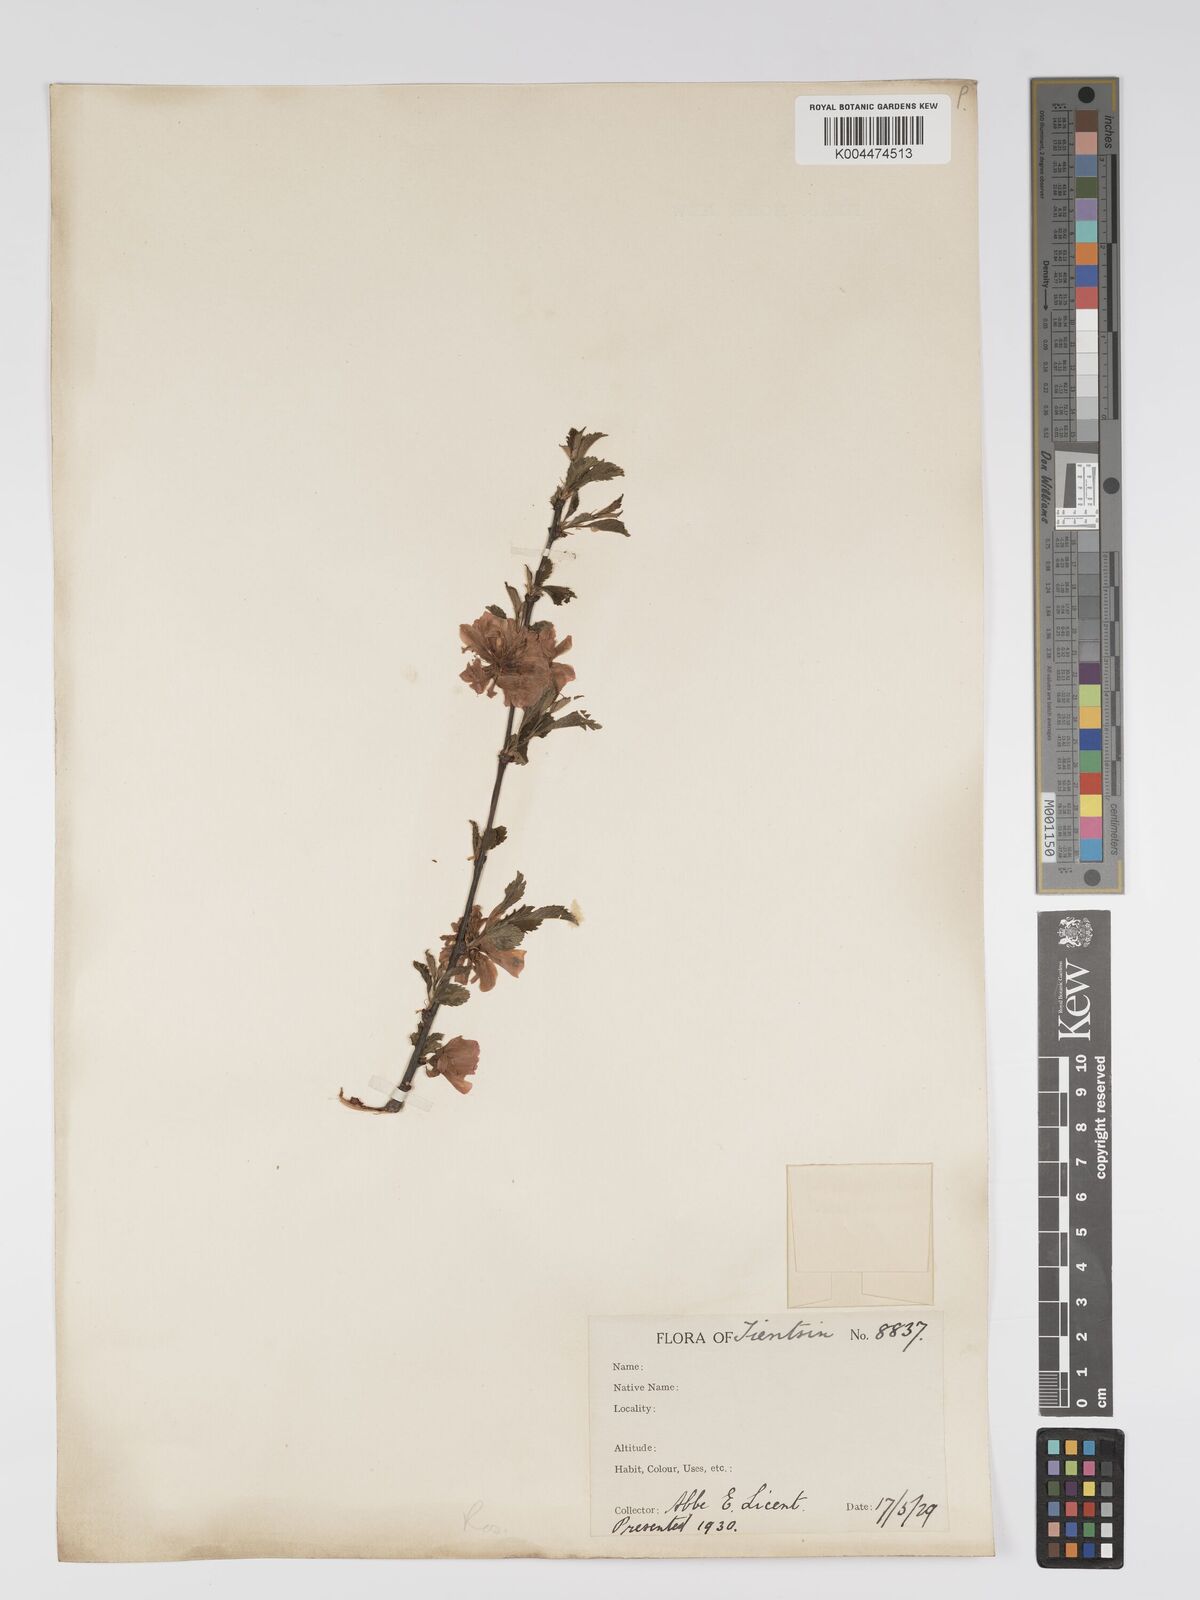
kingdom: Plantae
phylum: Tracheophyta
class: Magnoliopsida
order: Rosales
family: Rosaceae
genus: Prunus
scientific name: Prunus
